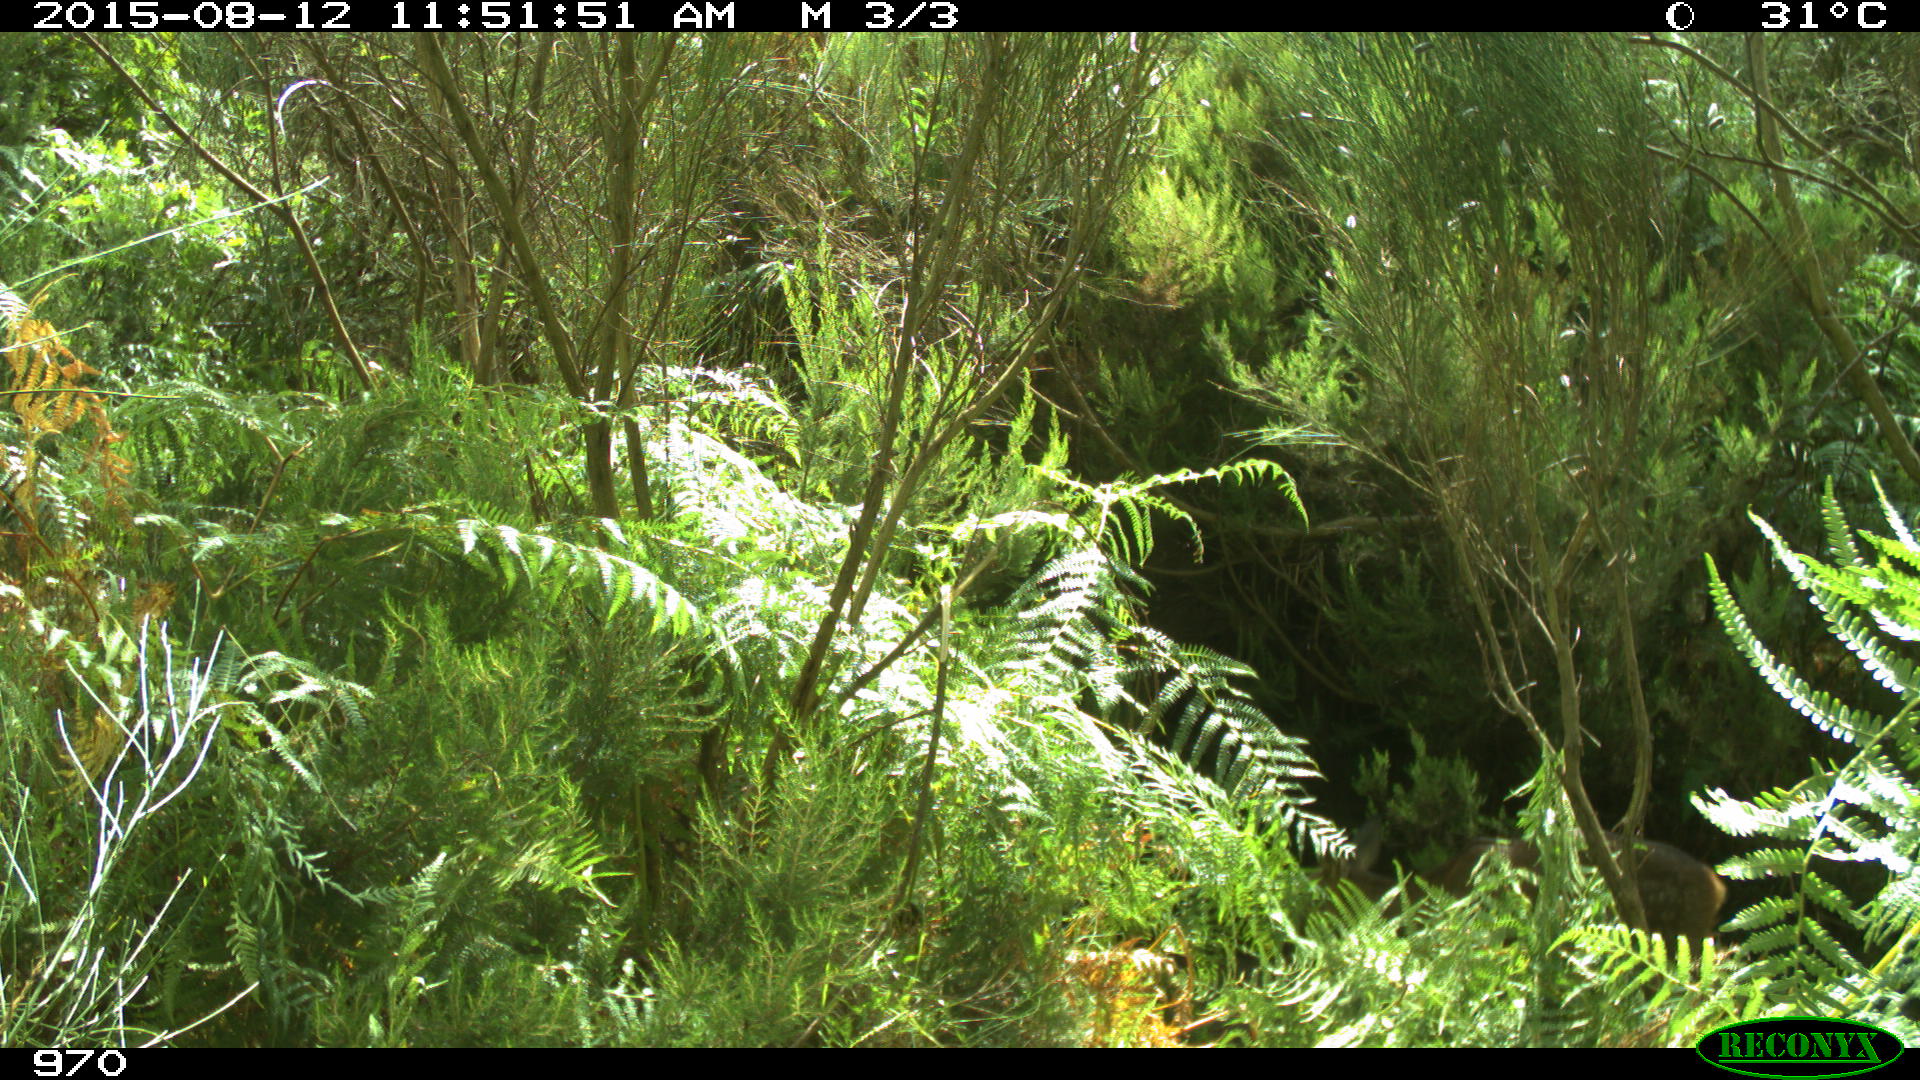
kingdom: Animalia
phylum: Chordata
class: Mammalia
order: Artiodactyla
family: Cervidae
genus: Capreolus
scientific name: Capreolus capreolus
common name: Western roe deer
